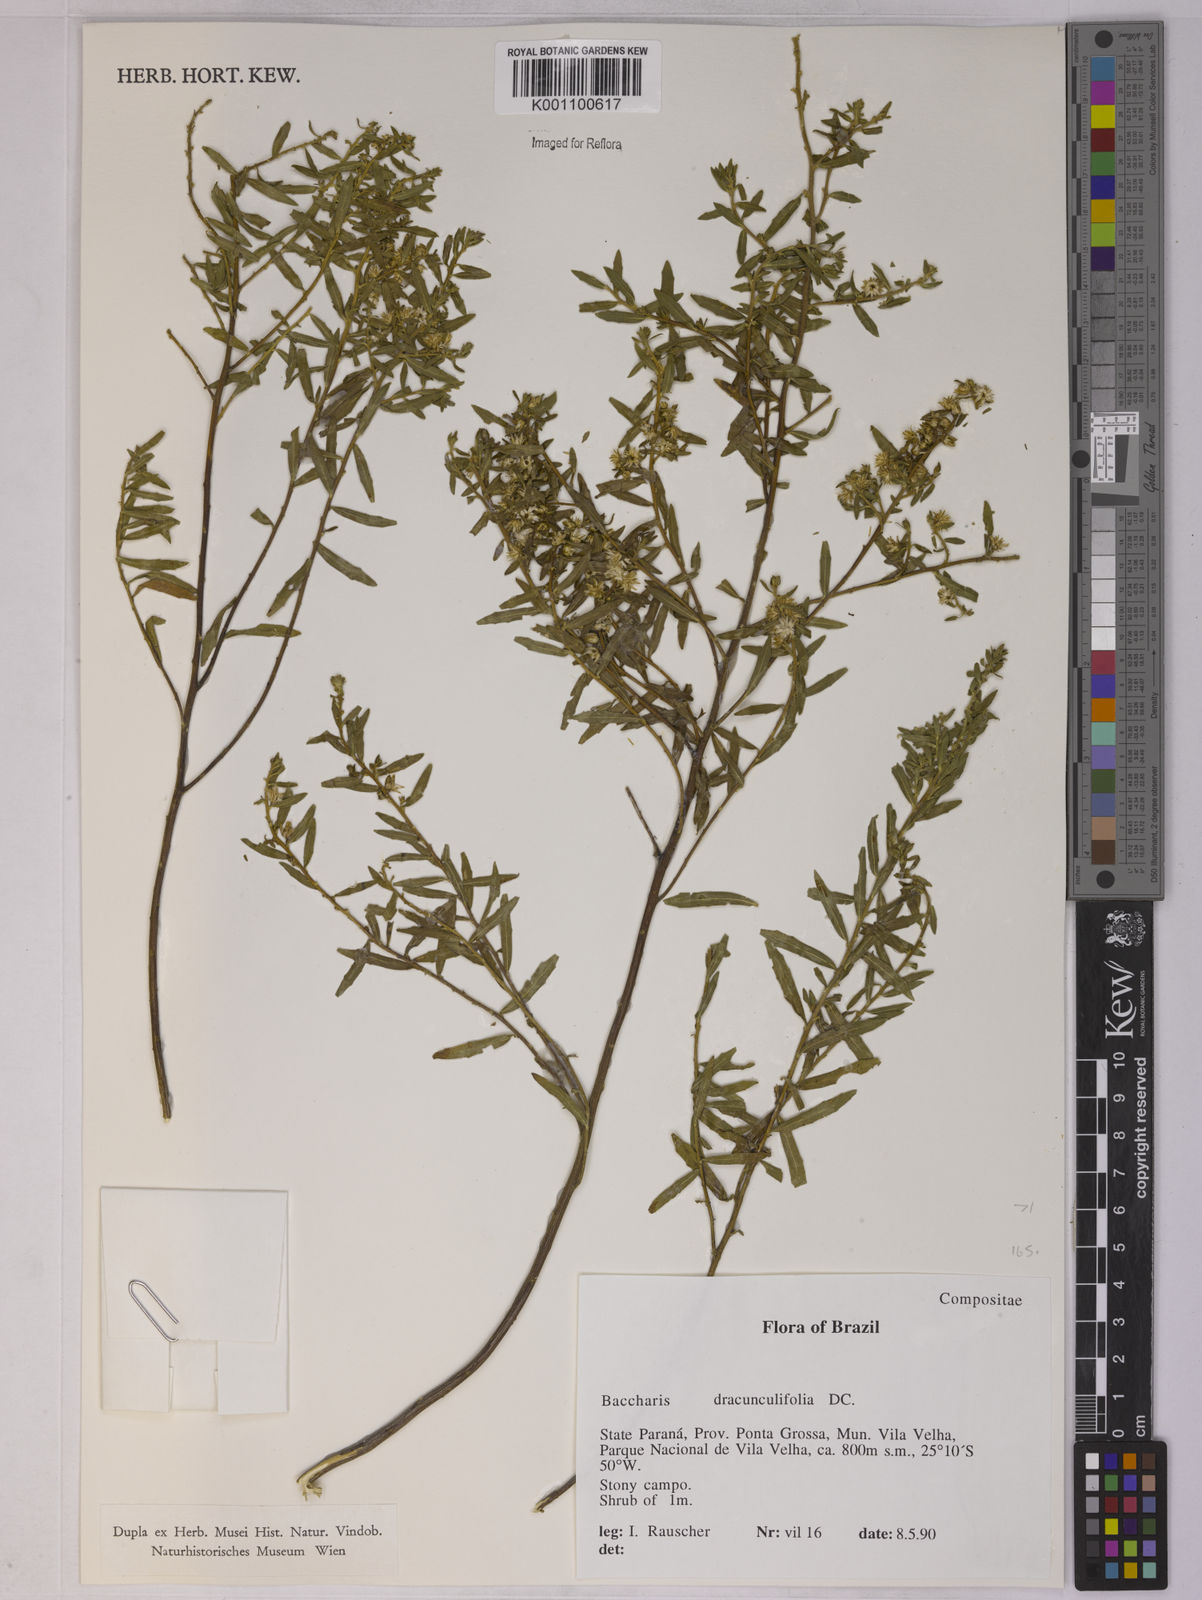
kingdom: Plantae
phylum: Tracheophyta
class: Magnoliopsida
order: Asterales
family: Asteraceae
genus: Baccharis
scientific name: Baccharis dracunculifolia
